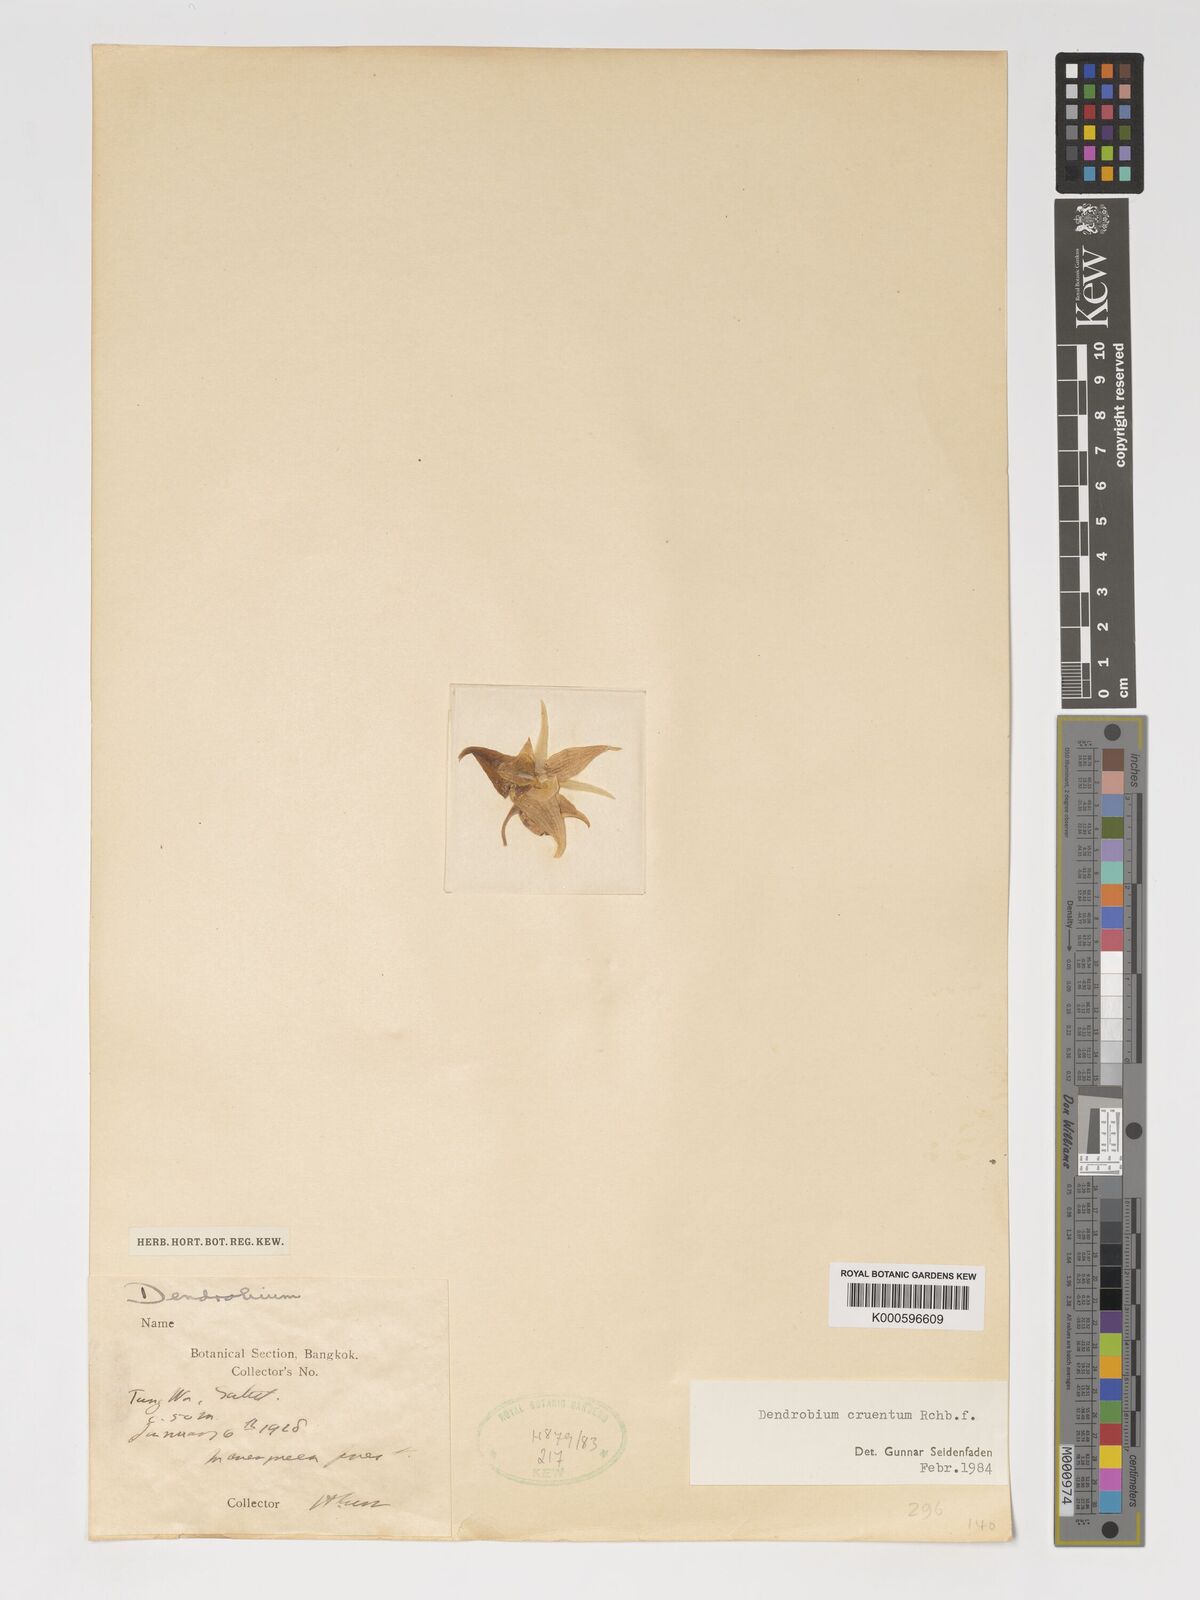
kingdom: Plantae
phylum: Tracheophyta
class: Liliopsida
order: Asparagales
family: Orchidaceae
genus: Dendrobium
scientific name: Dendrobium cruentum
